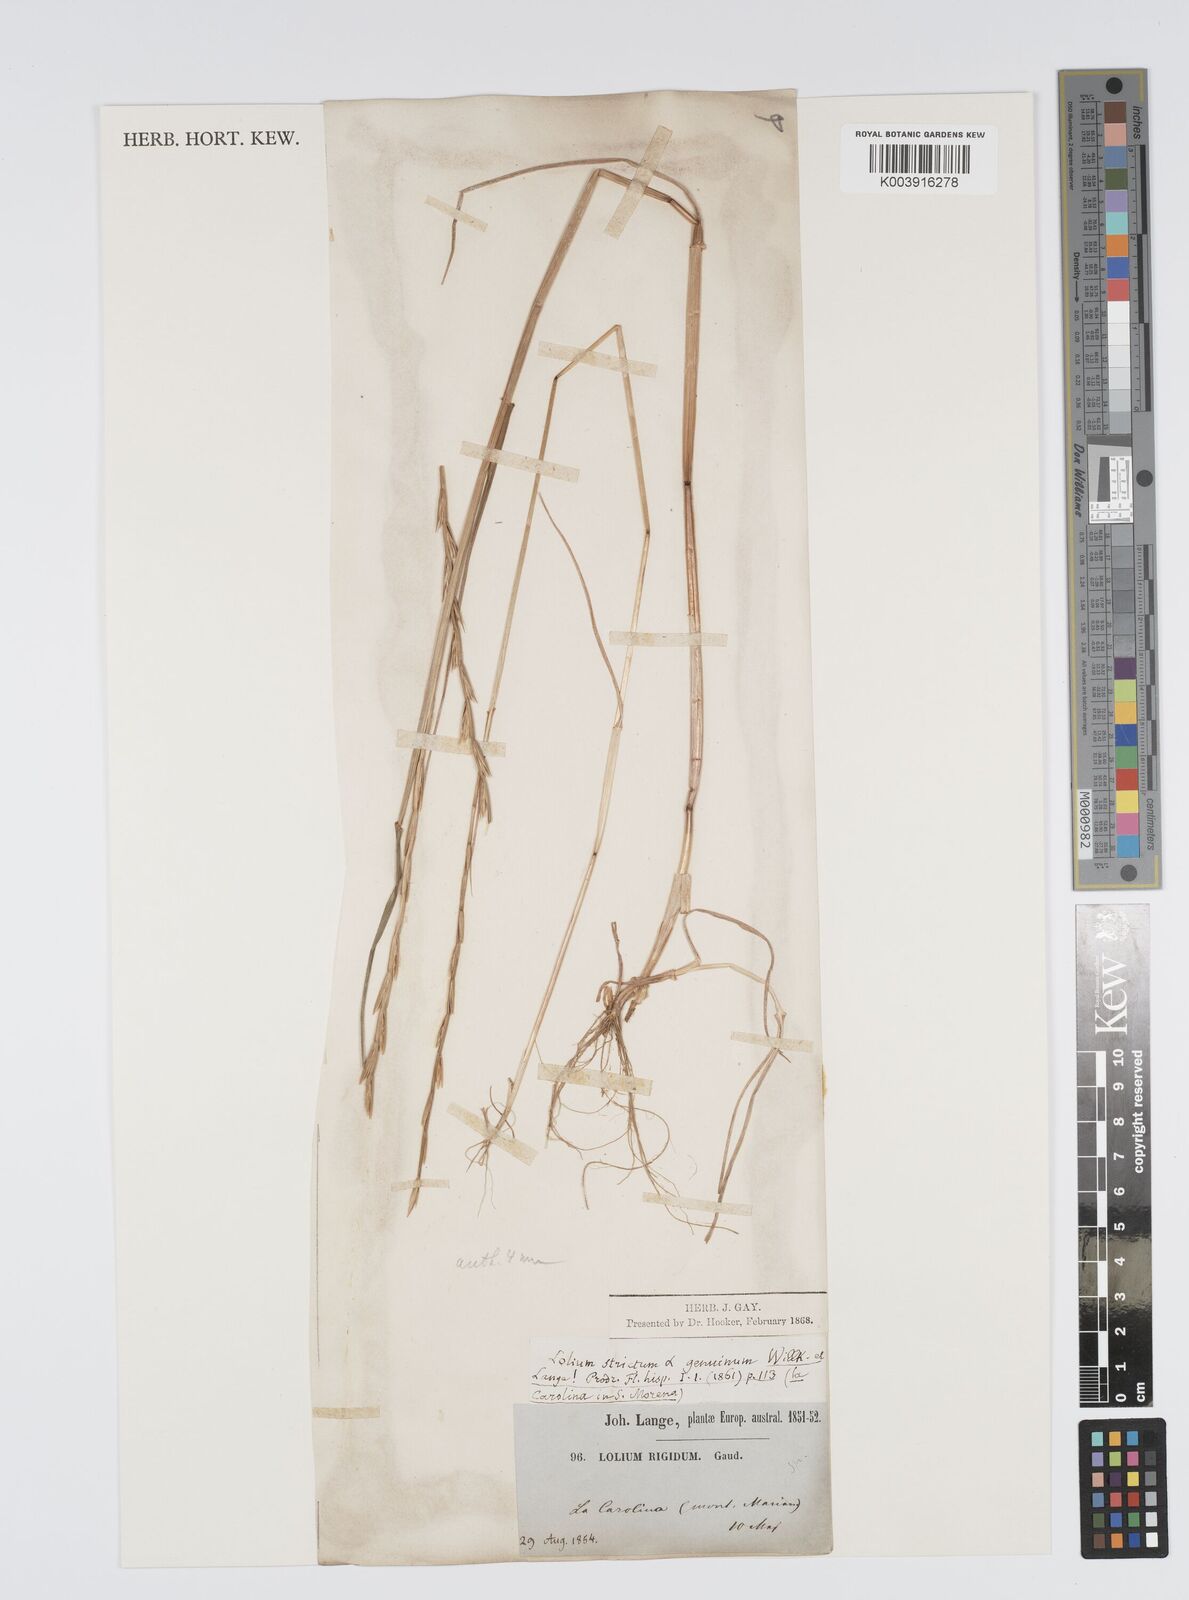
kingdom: Plantae
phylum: Tracheophyta
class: Liliopsida
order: Poales
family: Poaceae
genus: Lolium
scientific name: Lolium rigidum
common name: Wimmera ryegrass
